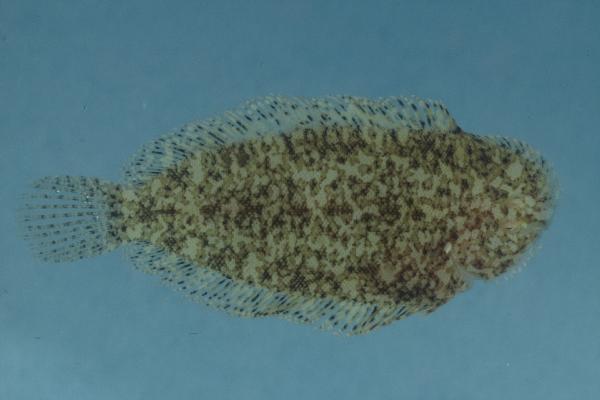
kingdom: Animalia
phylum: Chordata
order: Pleuronectiformes
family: Soleidae
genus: Aseraggodes
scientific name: Aseraggodes melanostictus
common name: Black spotted sole
